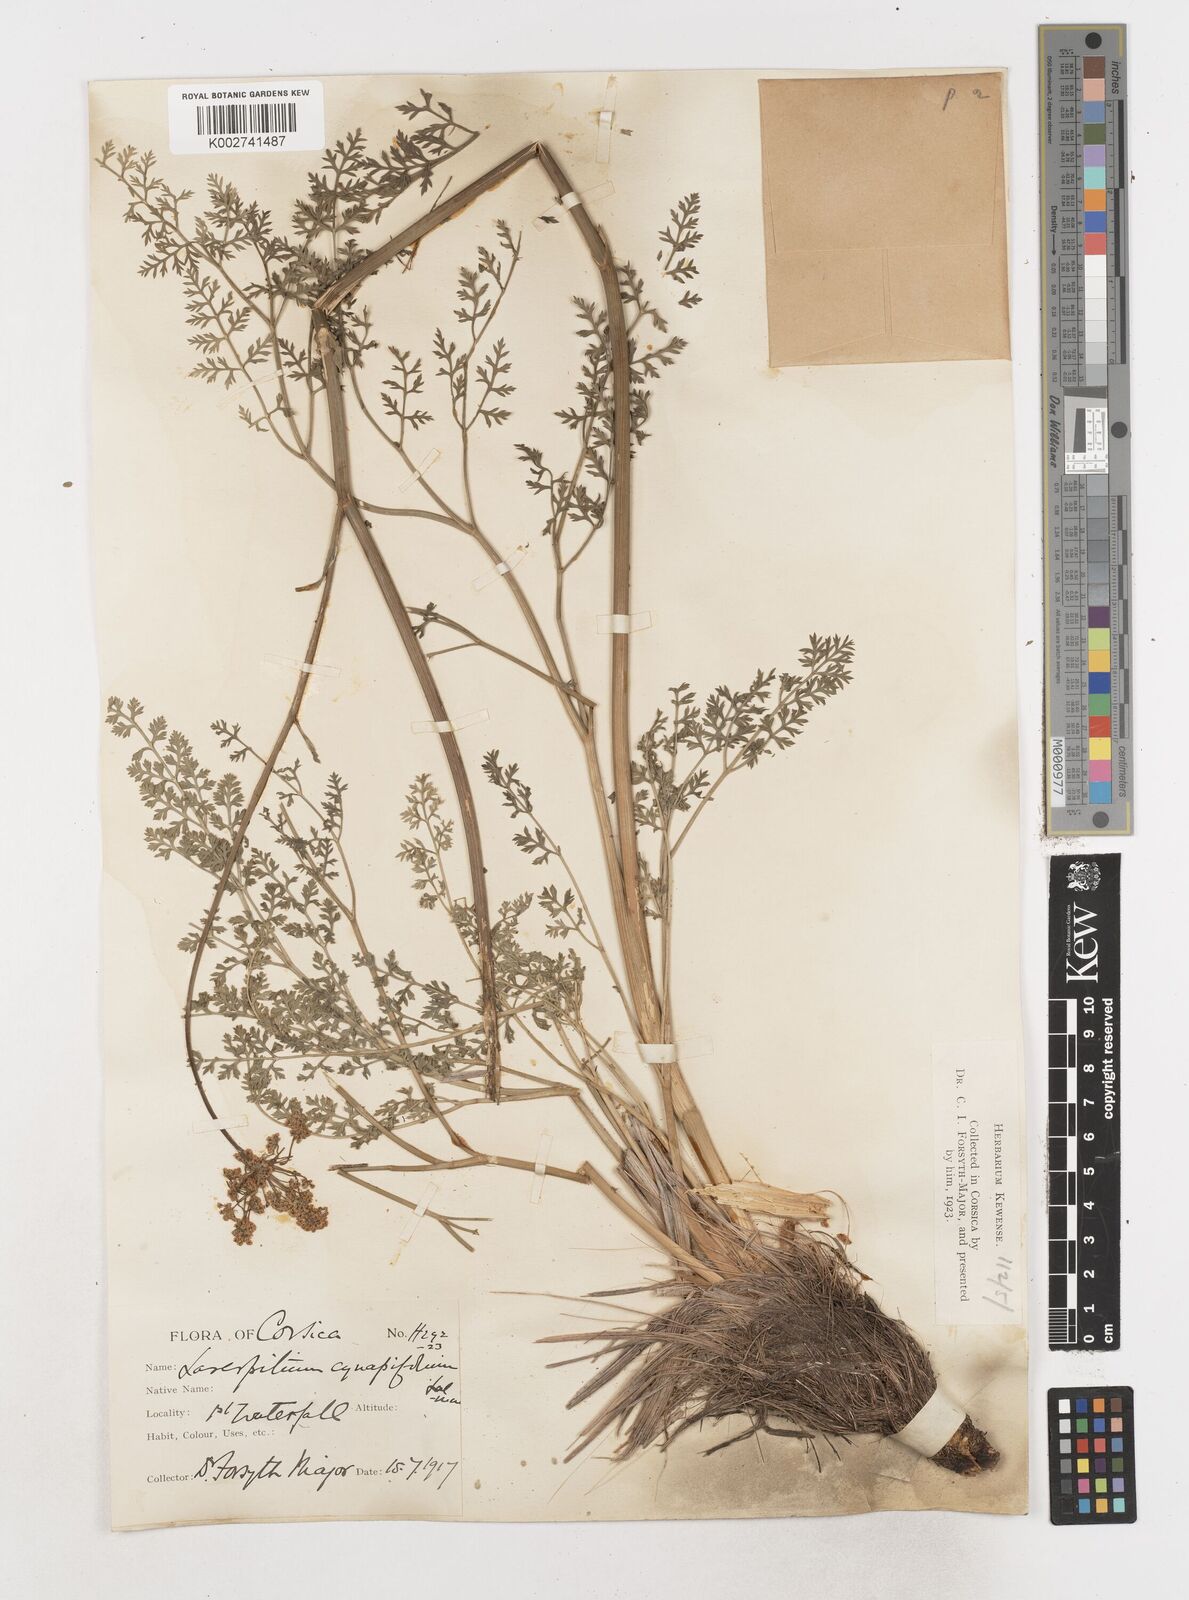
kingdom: Plantae
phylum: Tracheophyta
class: Magnoliopsida
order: Apiales
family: Apiaceae
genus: Laserpitium
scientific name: Laserpitium halleri
